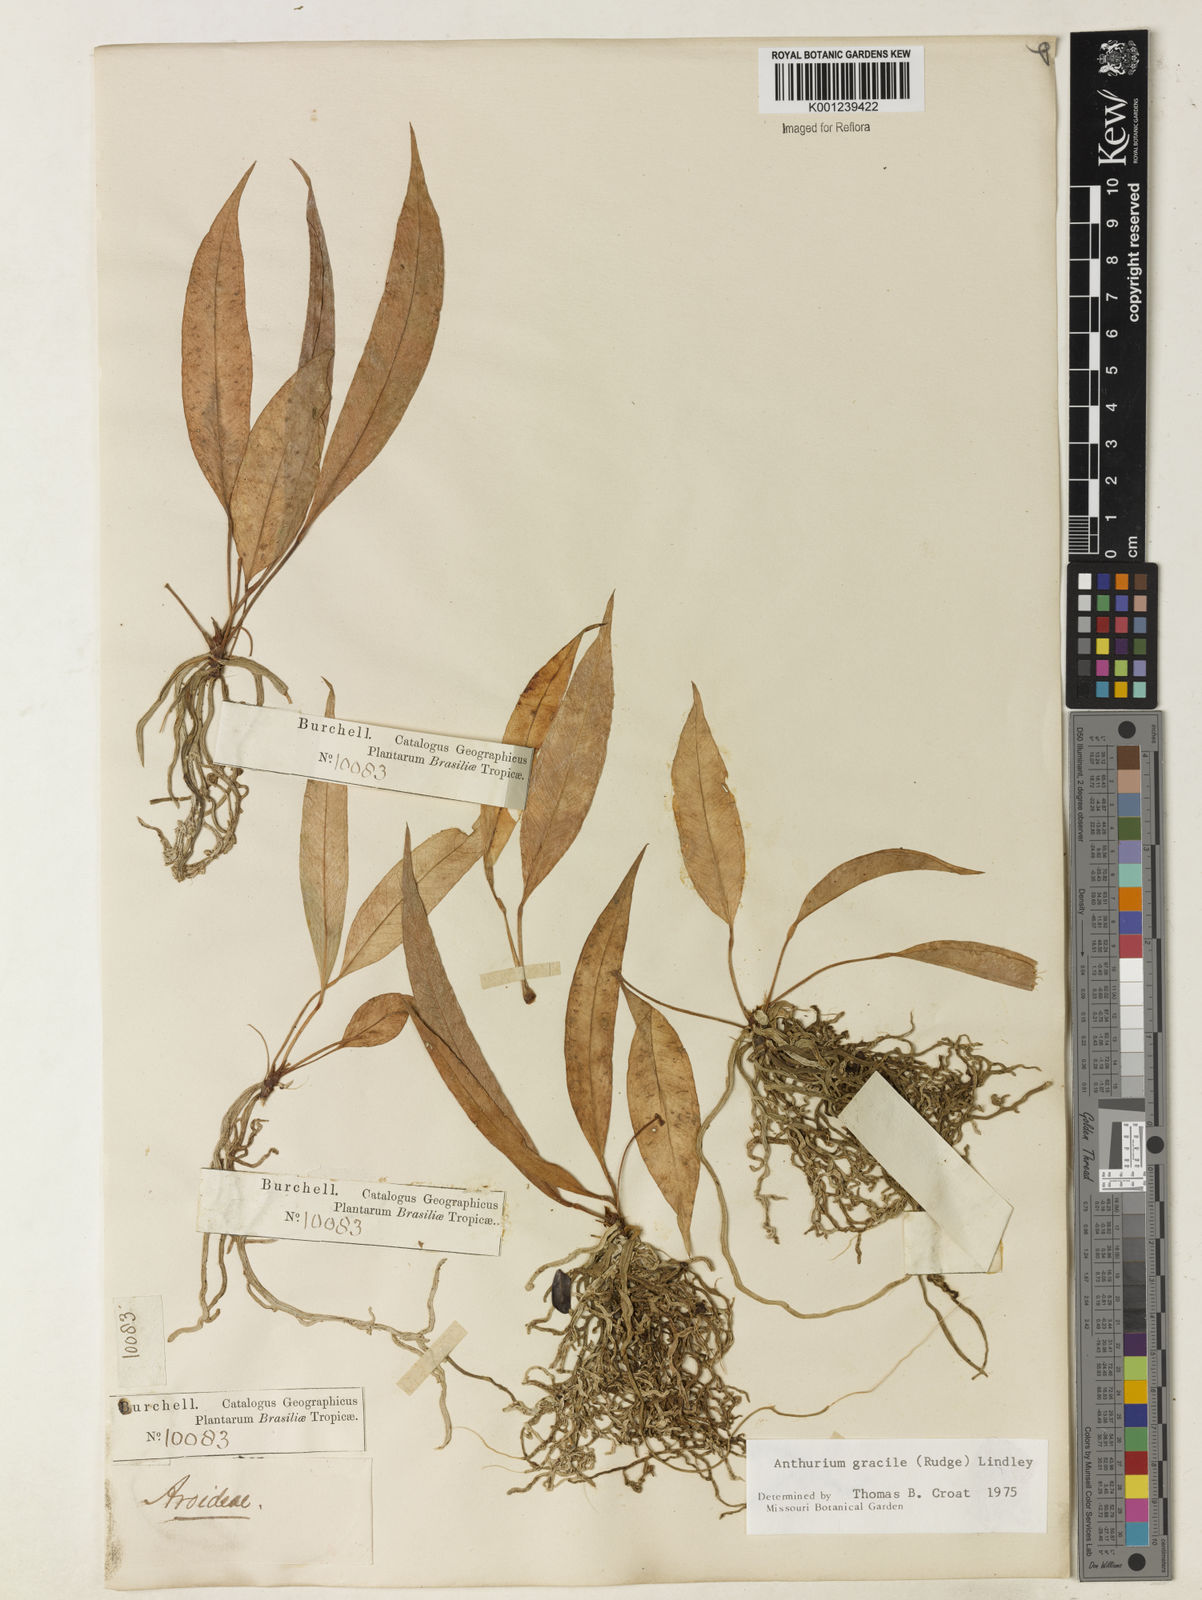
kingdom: Plantae
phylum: Tracheophyta
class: Liliopsida
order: Alismatales
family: Araceae
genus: Anthurium
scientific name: Anthurium gracile
